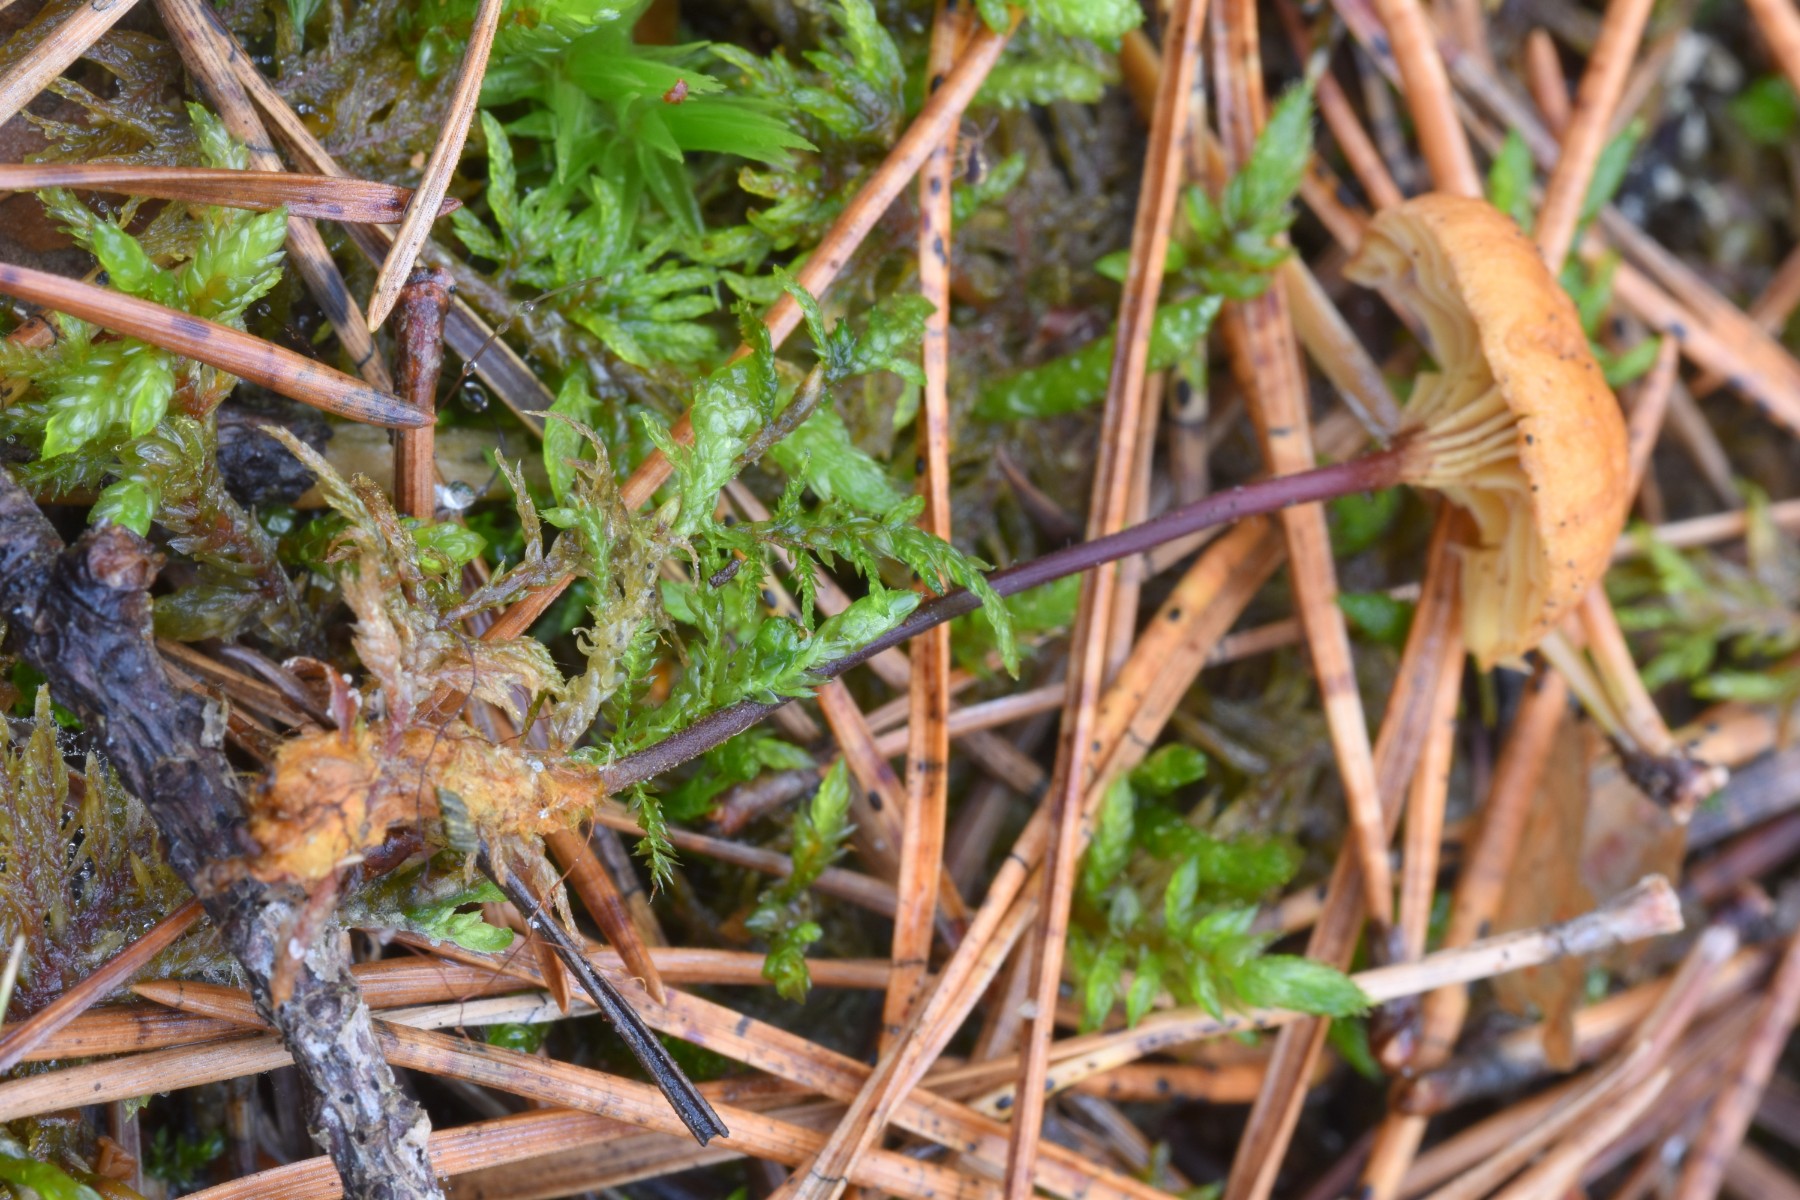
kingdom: Fungi
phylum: Basidiomycota
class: Agaricomycetes
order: Agaricales
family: Mycenaceae
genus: Xeromphalina
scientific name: Xeromphalina cauticinalis
